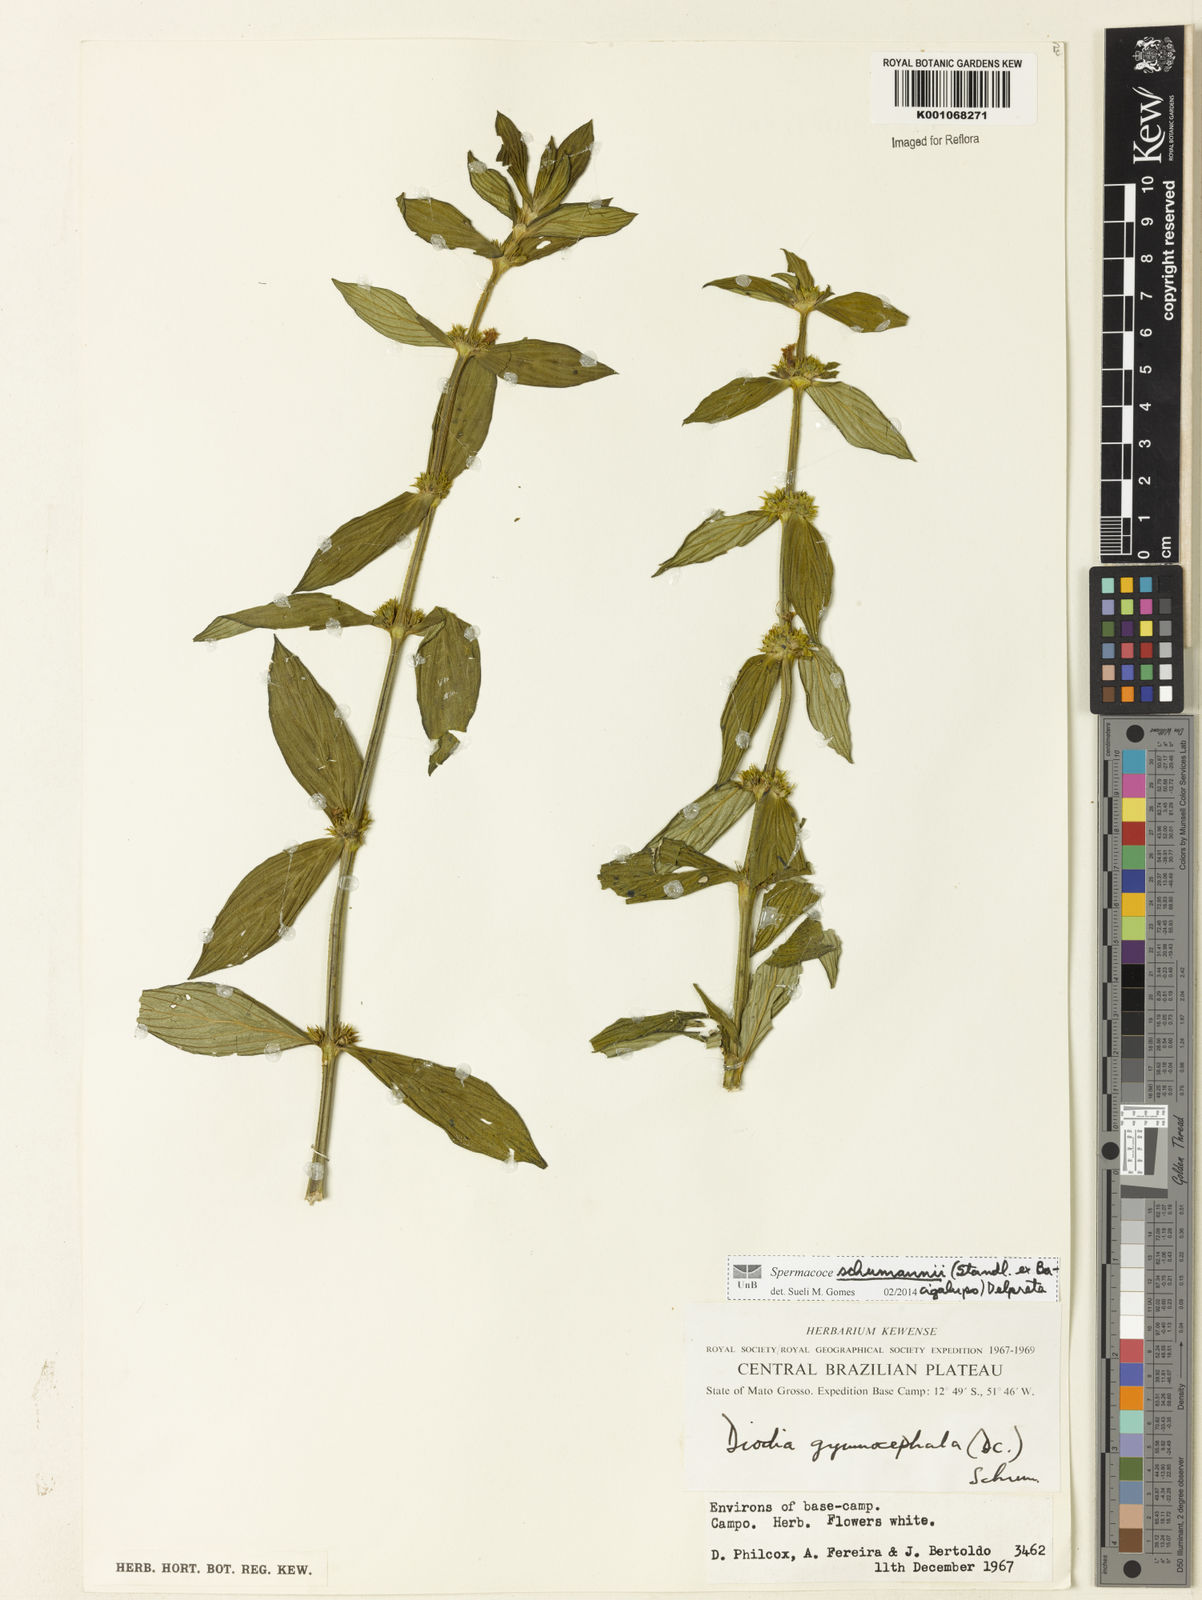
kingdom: Plantae
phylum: Tracheophyta
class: Magnoliopsida
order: Gentianales
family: Rubiaceae
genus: Spermacoce
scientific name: Spermacoce schumannii
